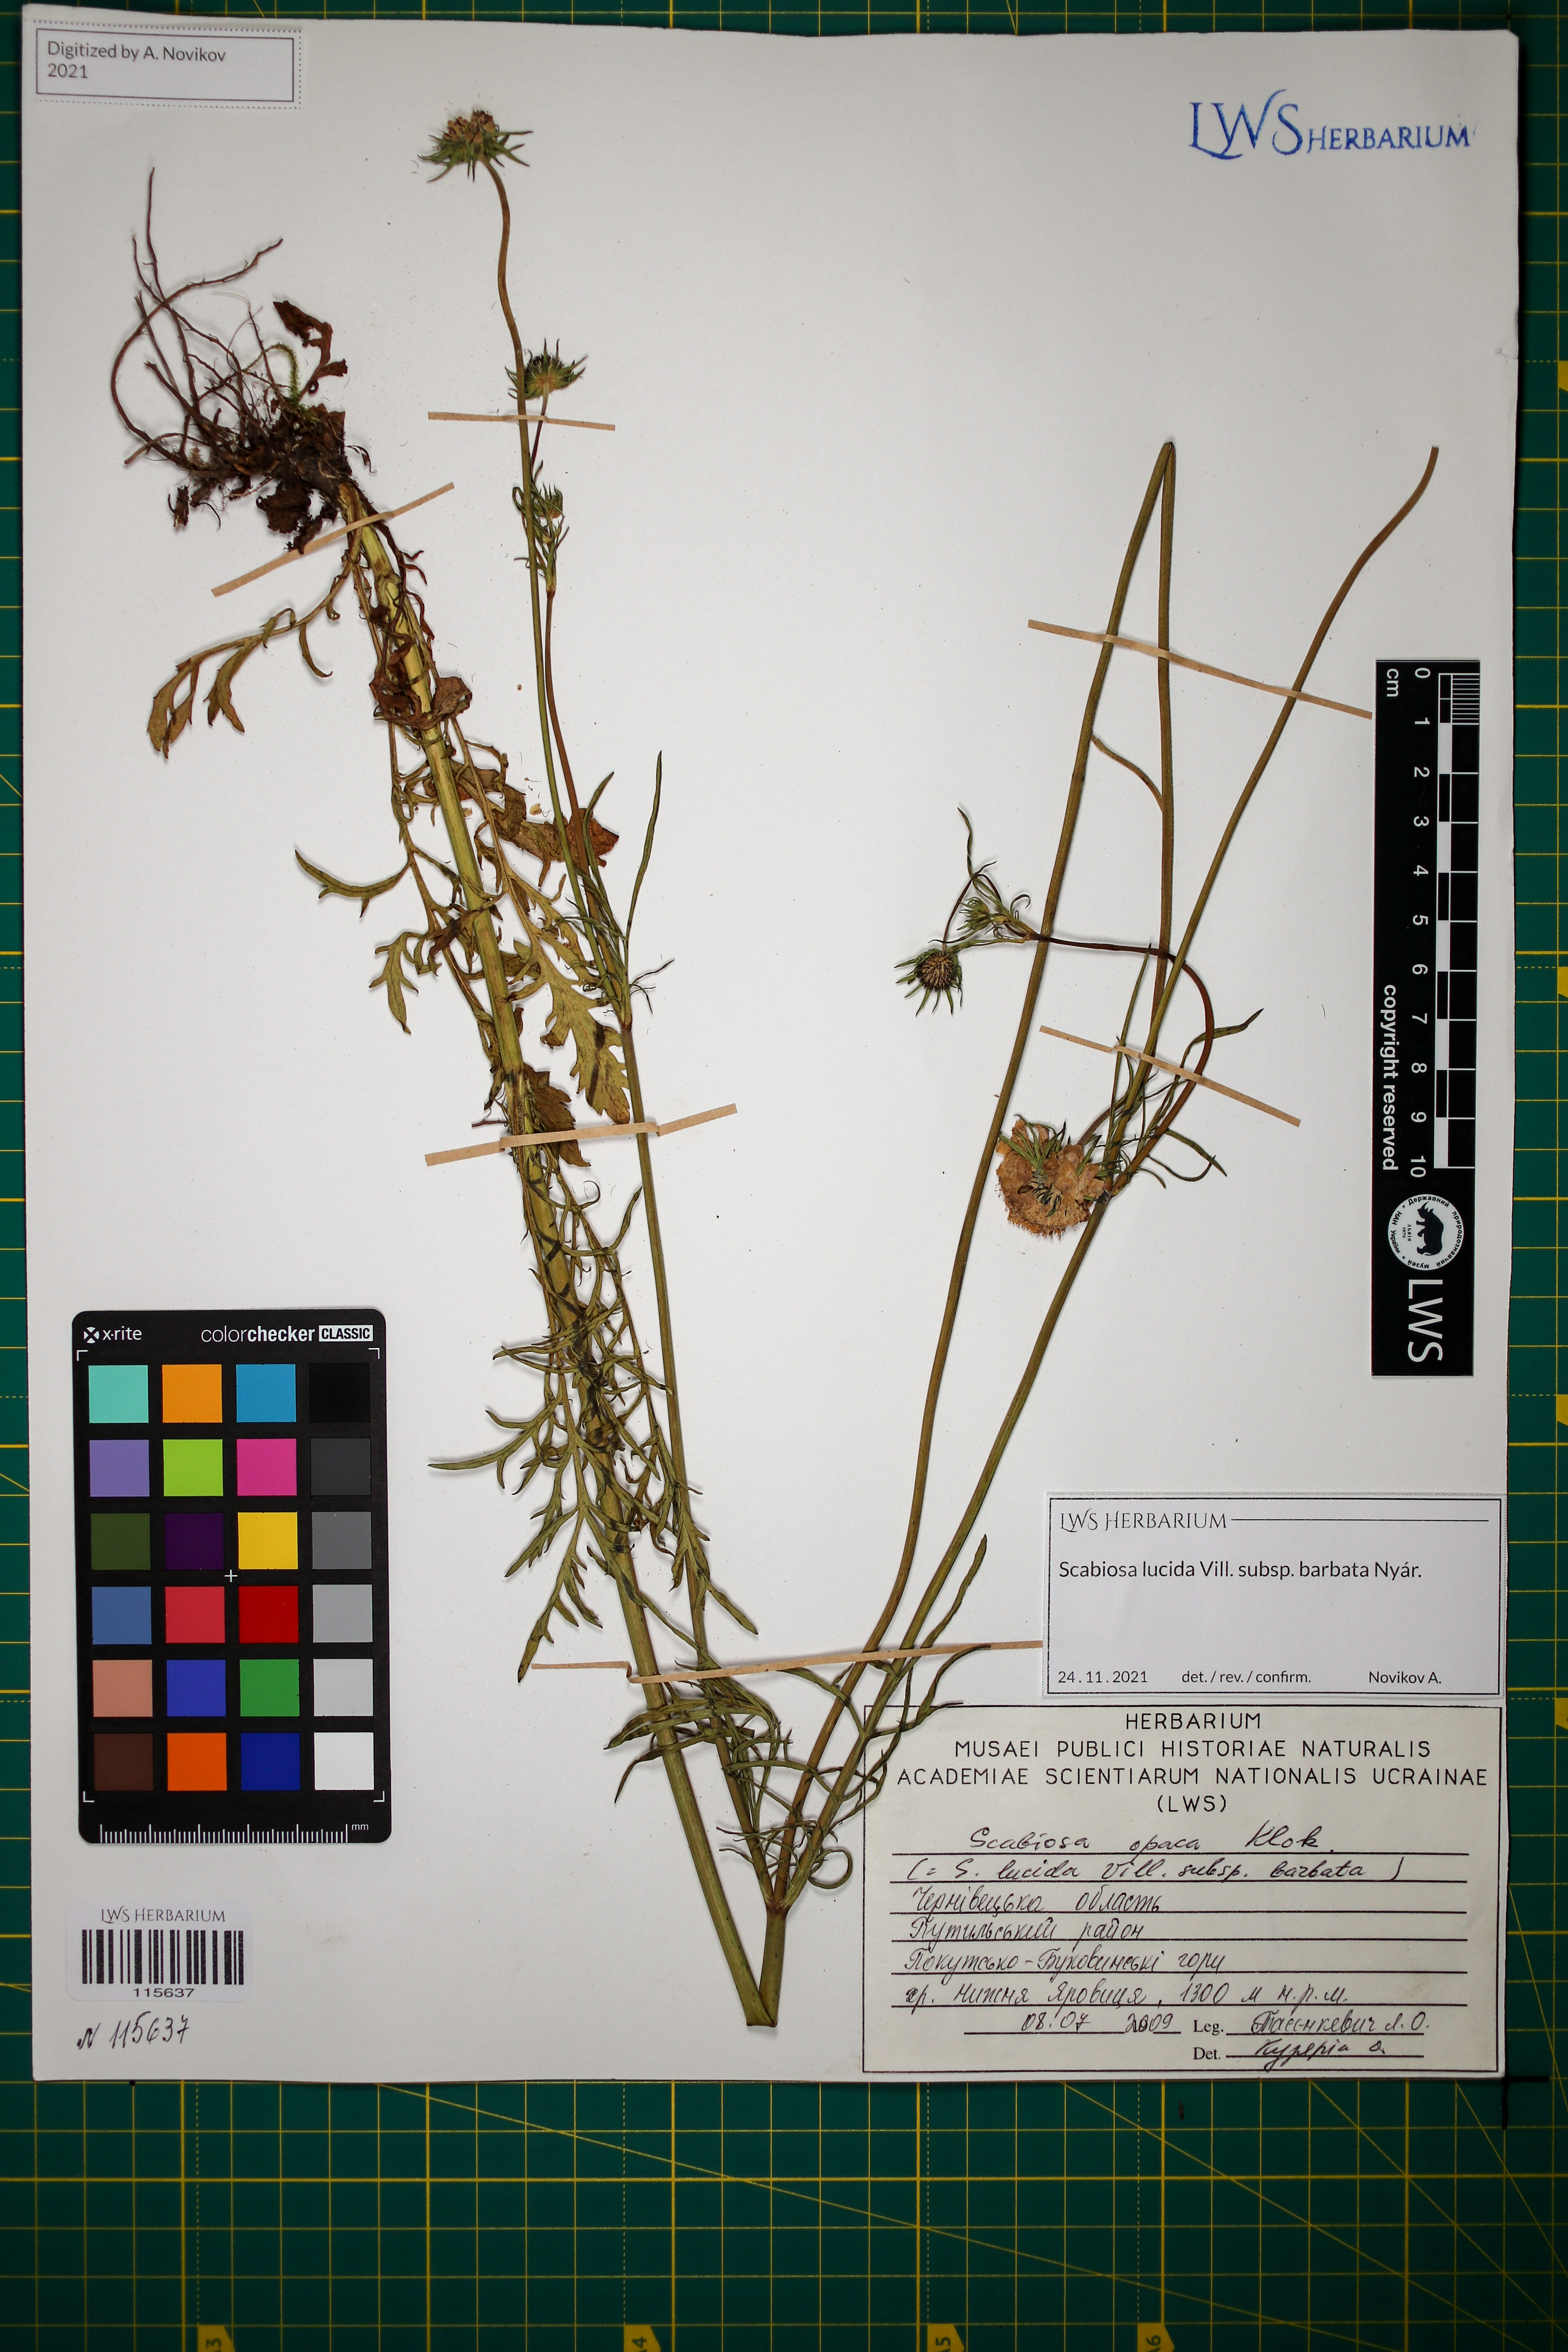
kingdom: Plantae
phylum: Tracheophyta
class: Magnoliopsida
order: Dipsacales
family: Caprifoliaceae
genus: Scabiosa
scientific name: Scabiosa lucida
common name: Shining scabious
